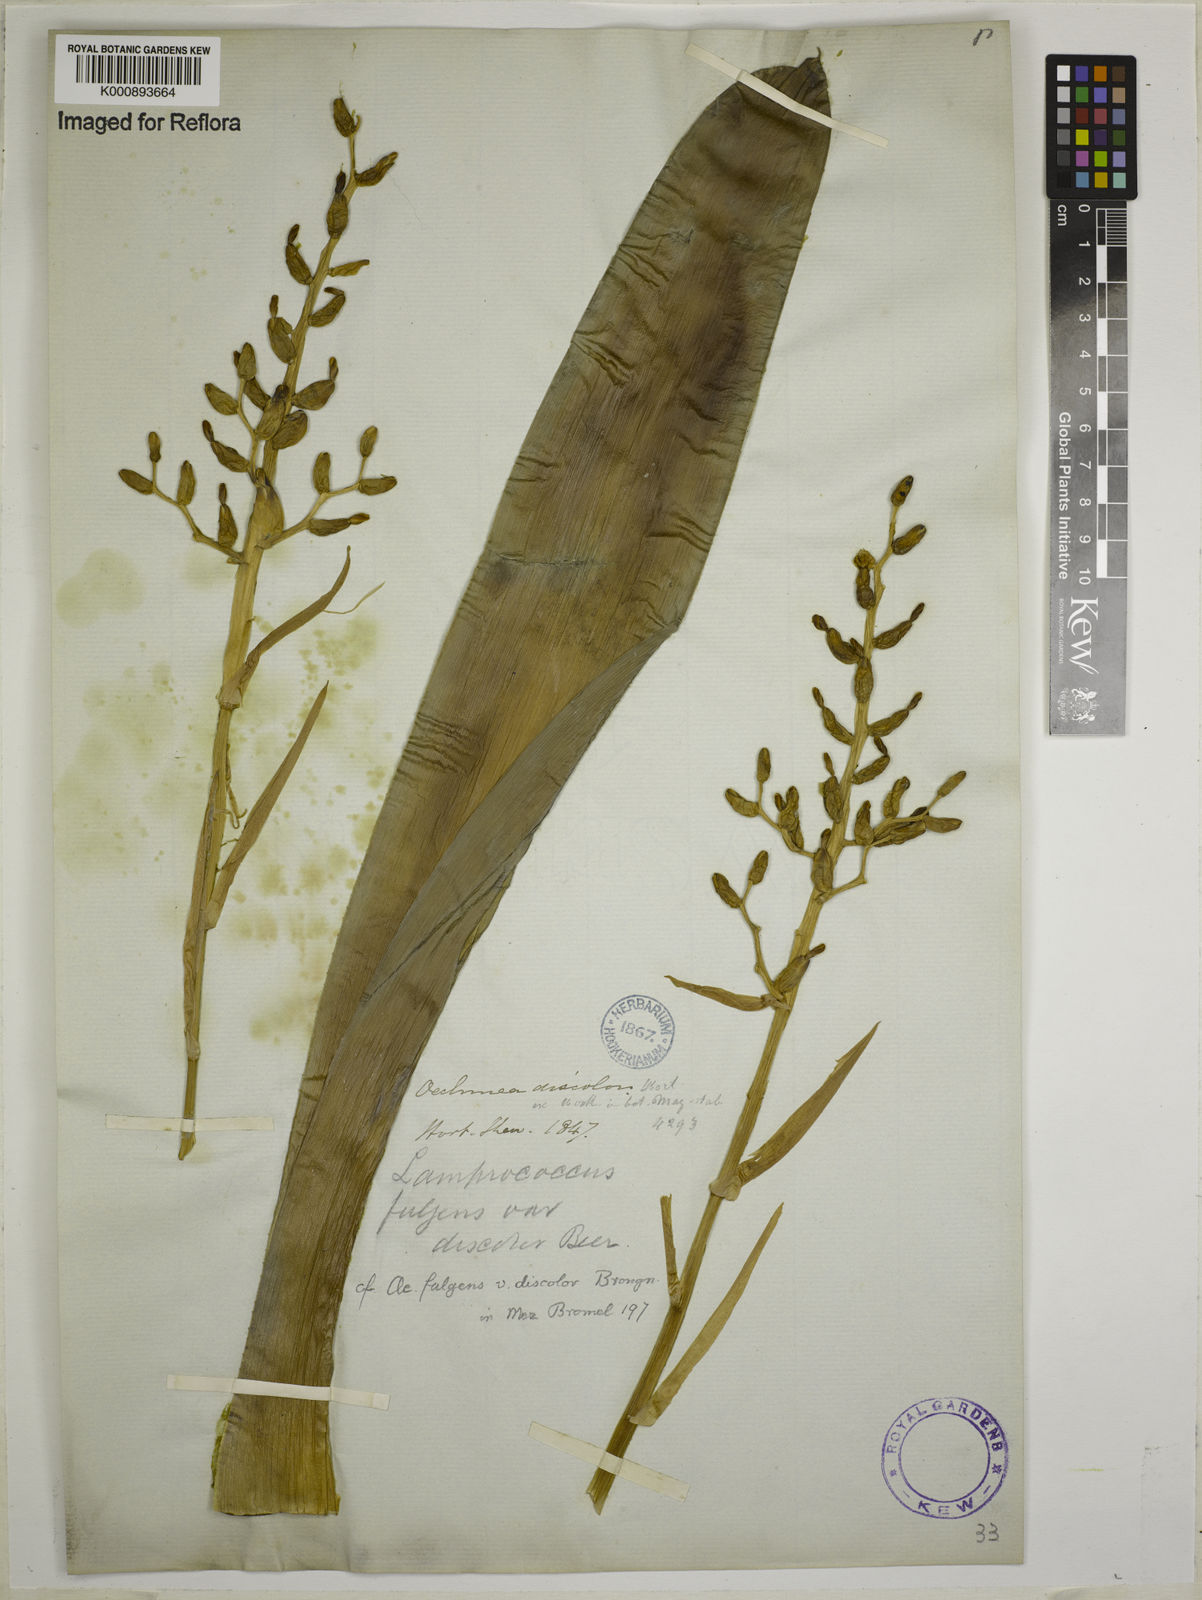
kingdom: Plantae
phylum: Tracheophyta
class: Liliopsida
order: Poales
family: Bromeliaceae
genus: Aechmea
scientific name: Aechmea fulgens
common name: Coralberry
